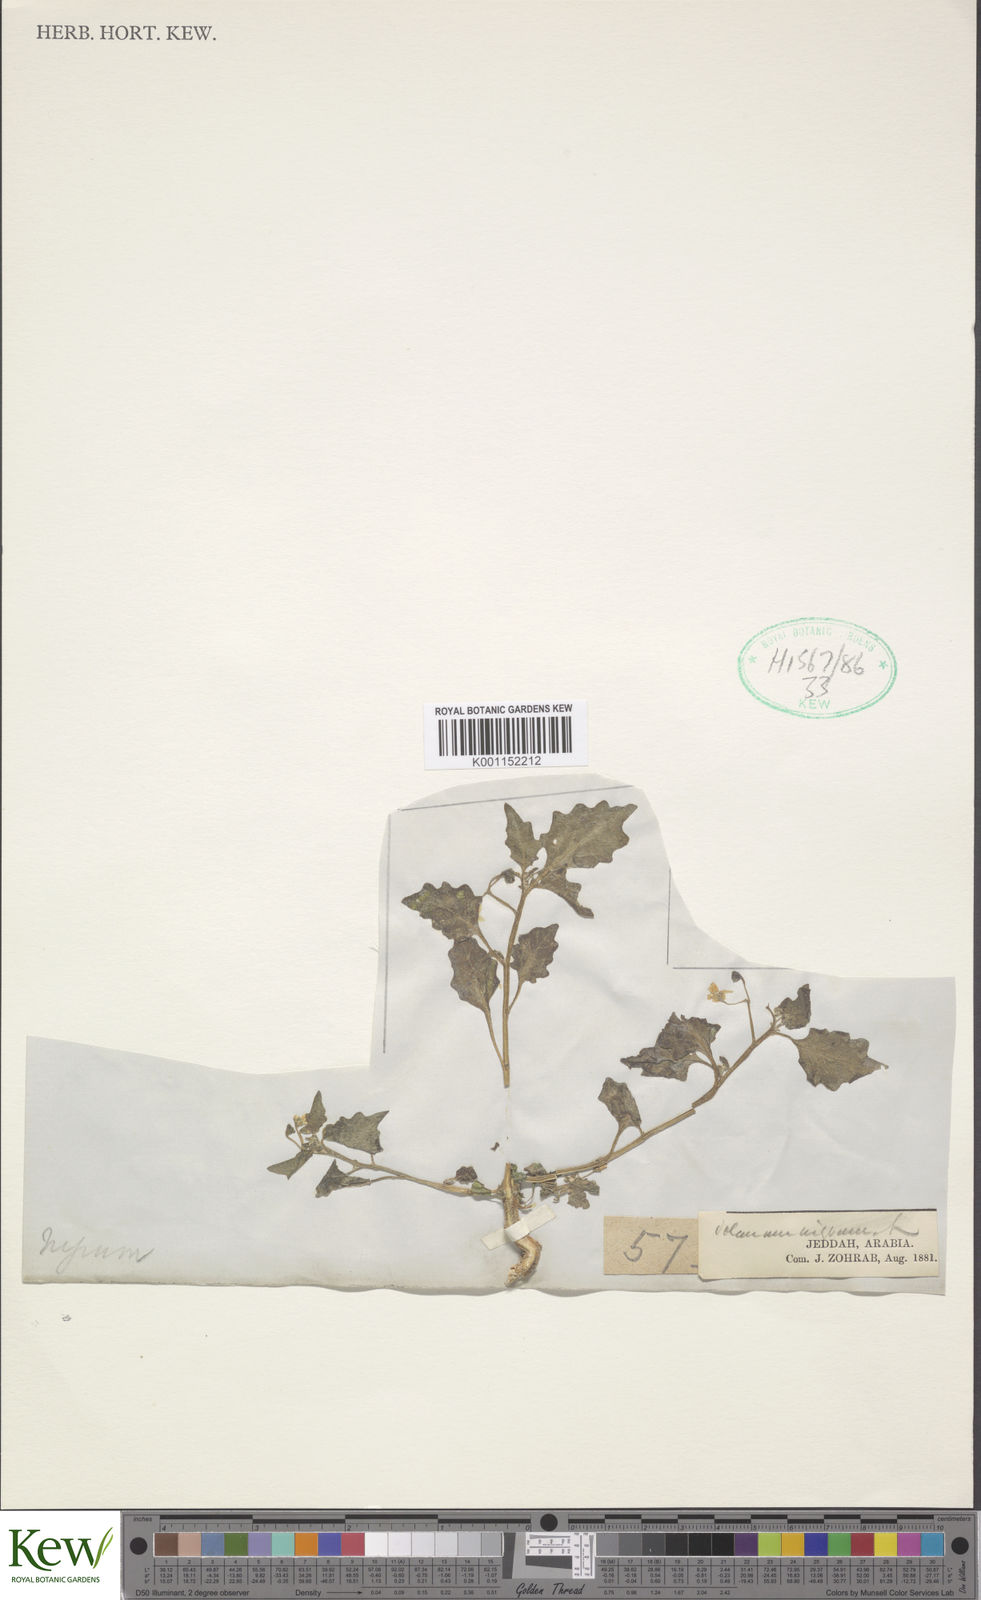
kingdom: Plantae
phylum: Tracheophyta
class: Magnoliopsida
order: Solanales
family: Solanaceae
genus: Solanum
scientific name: Solanum
